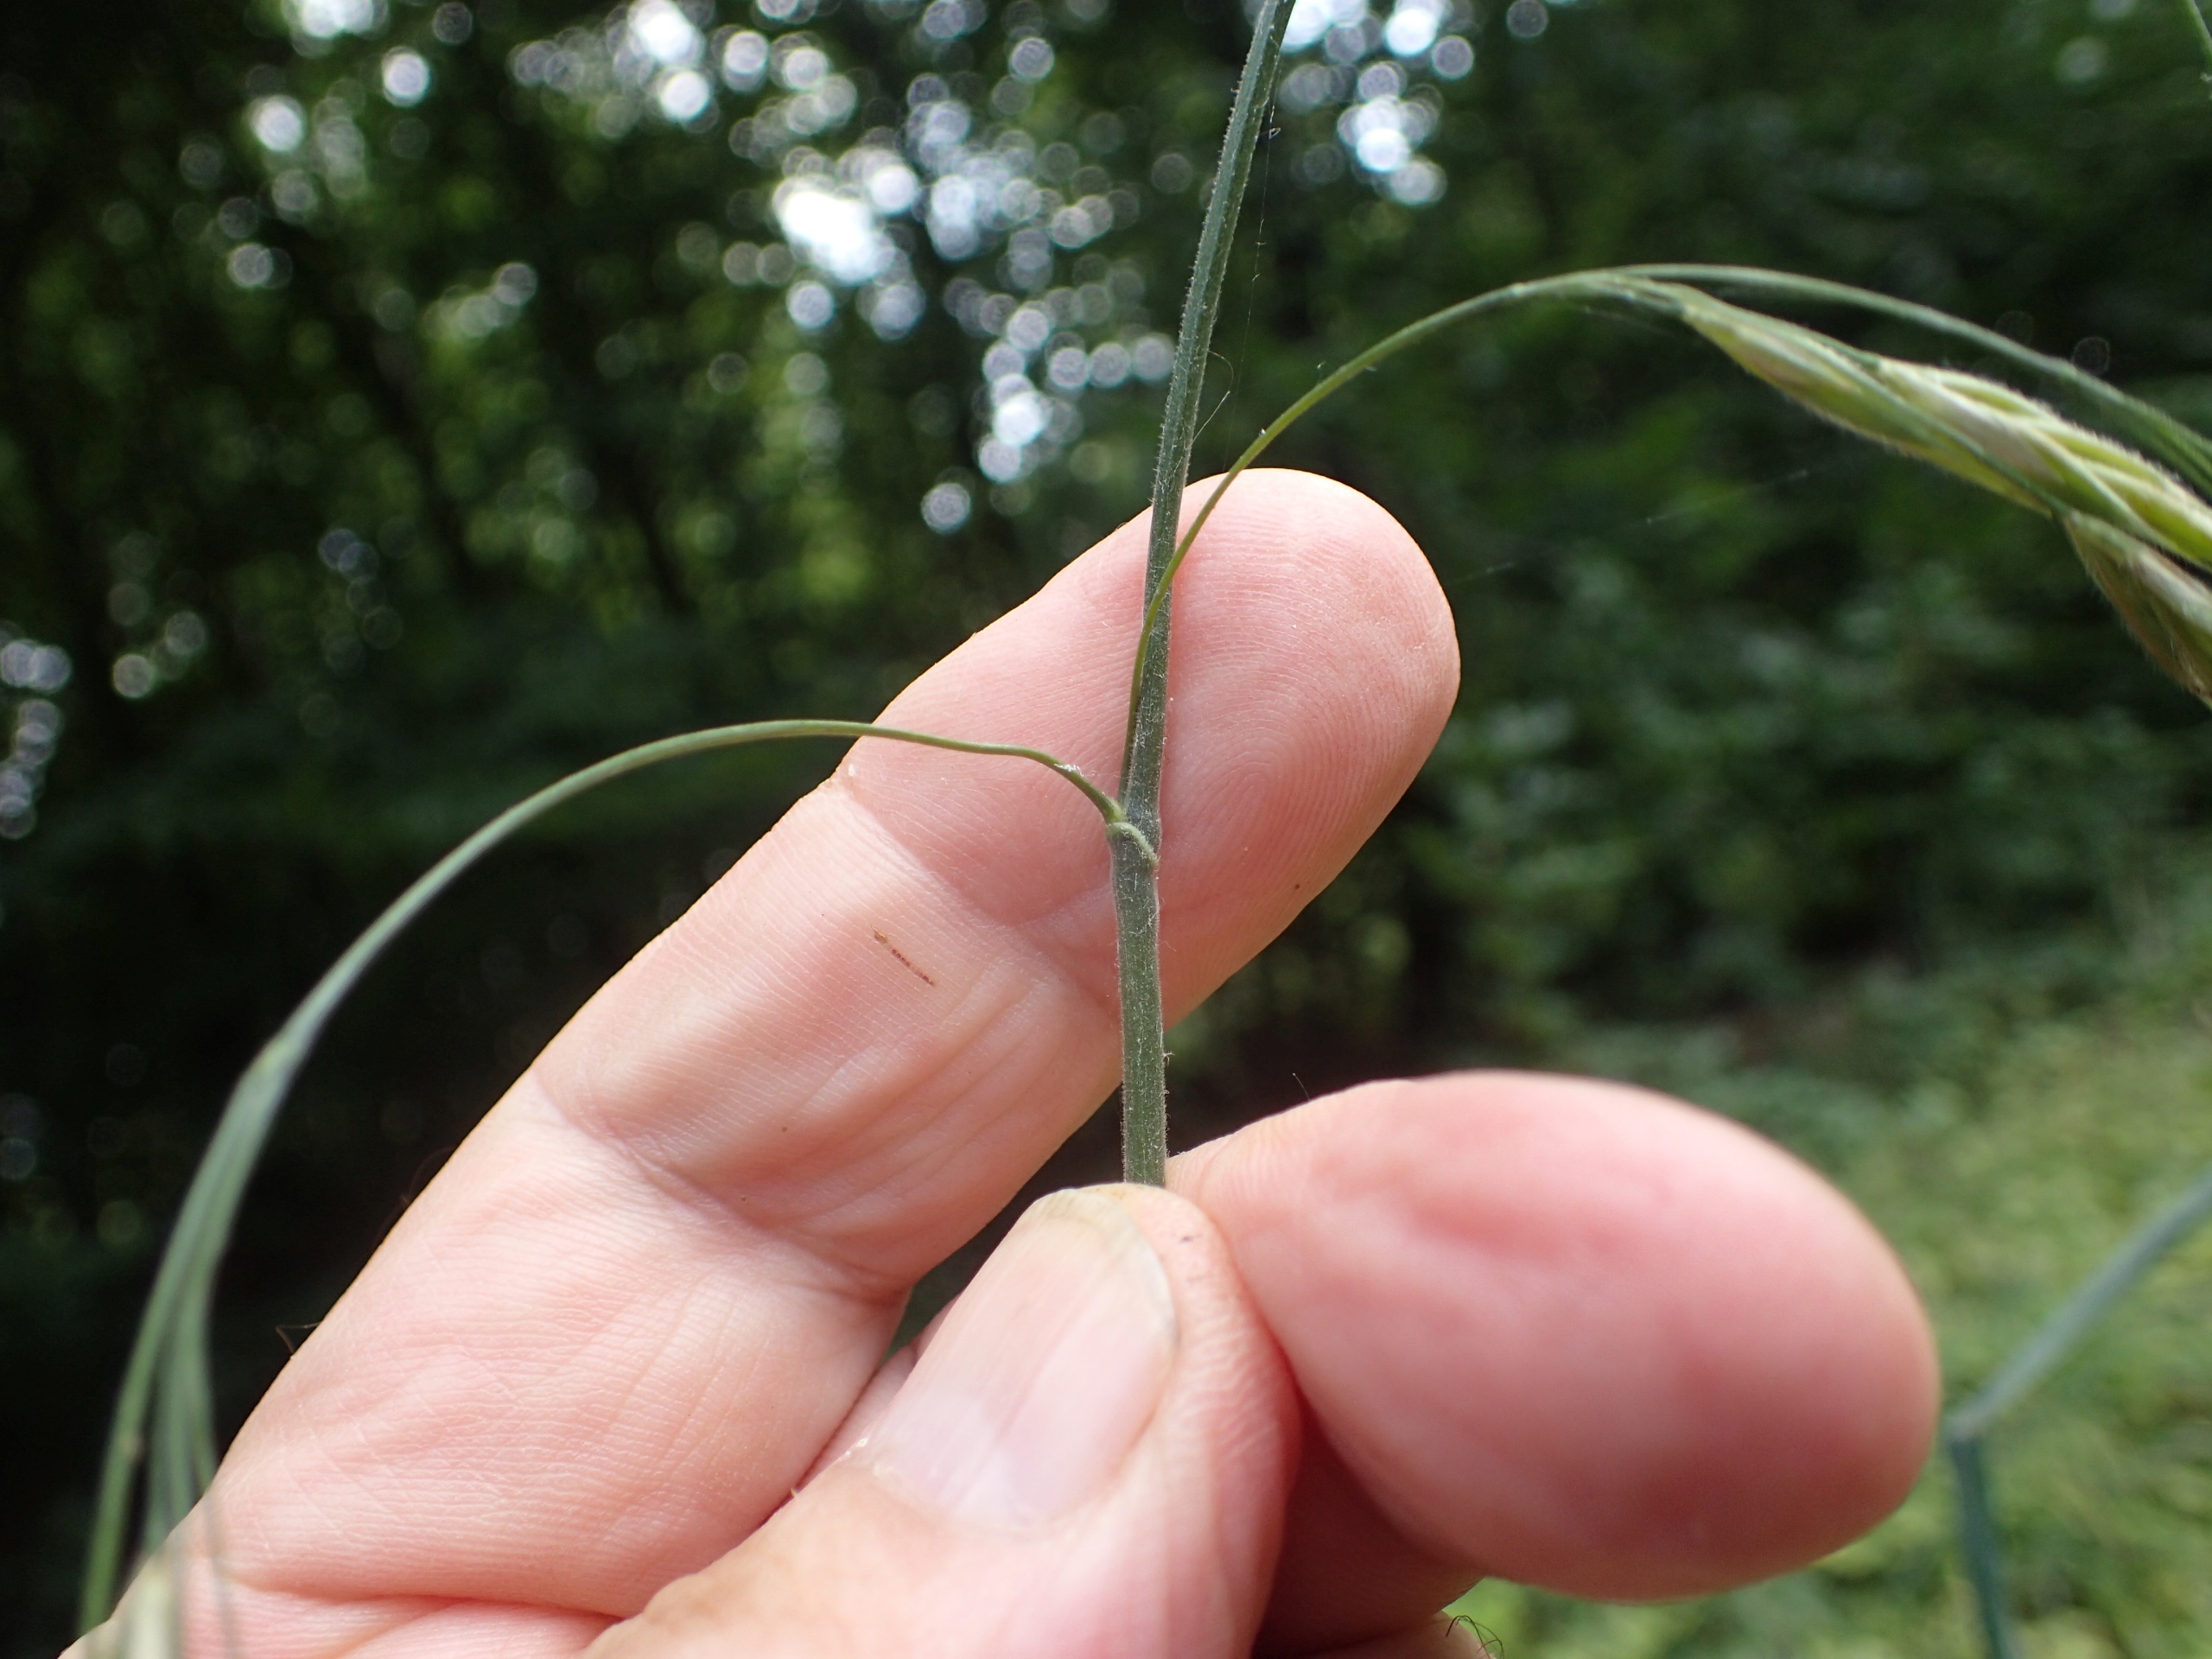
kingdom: Plantae
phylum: Tracheophyta
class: Liliopsida
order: Poales
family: Poaceae
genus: Bromus
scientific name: Bromus ramosus
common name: Sildig skov-hejre
